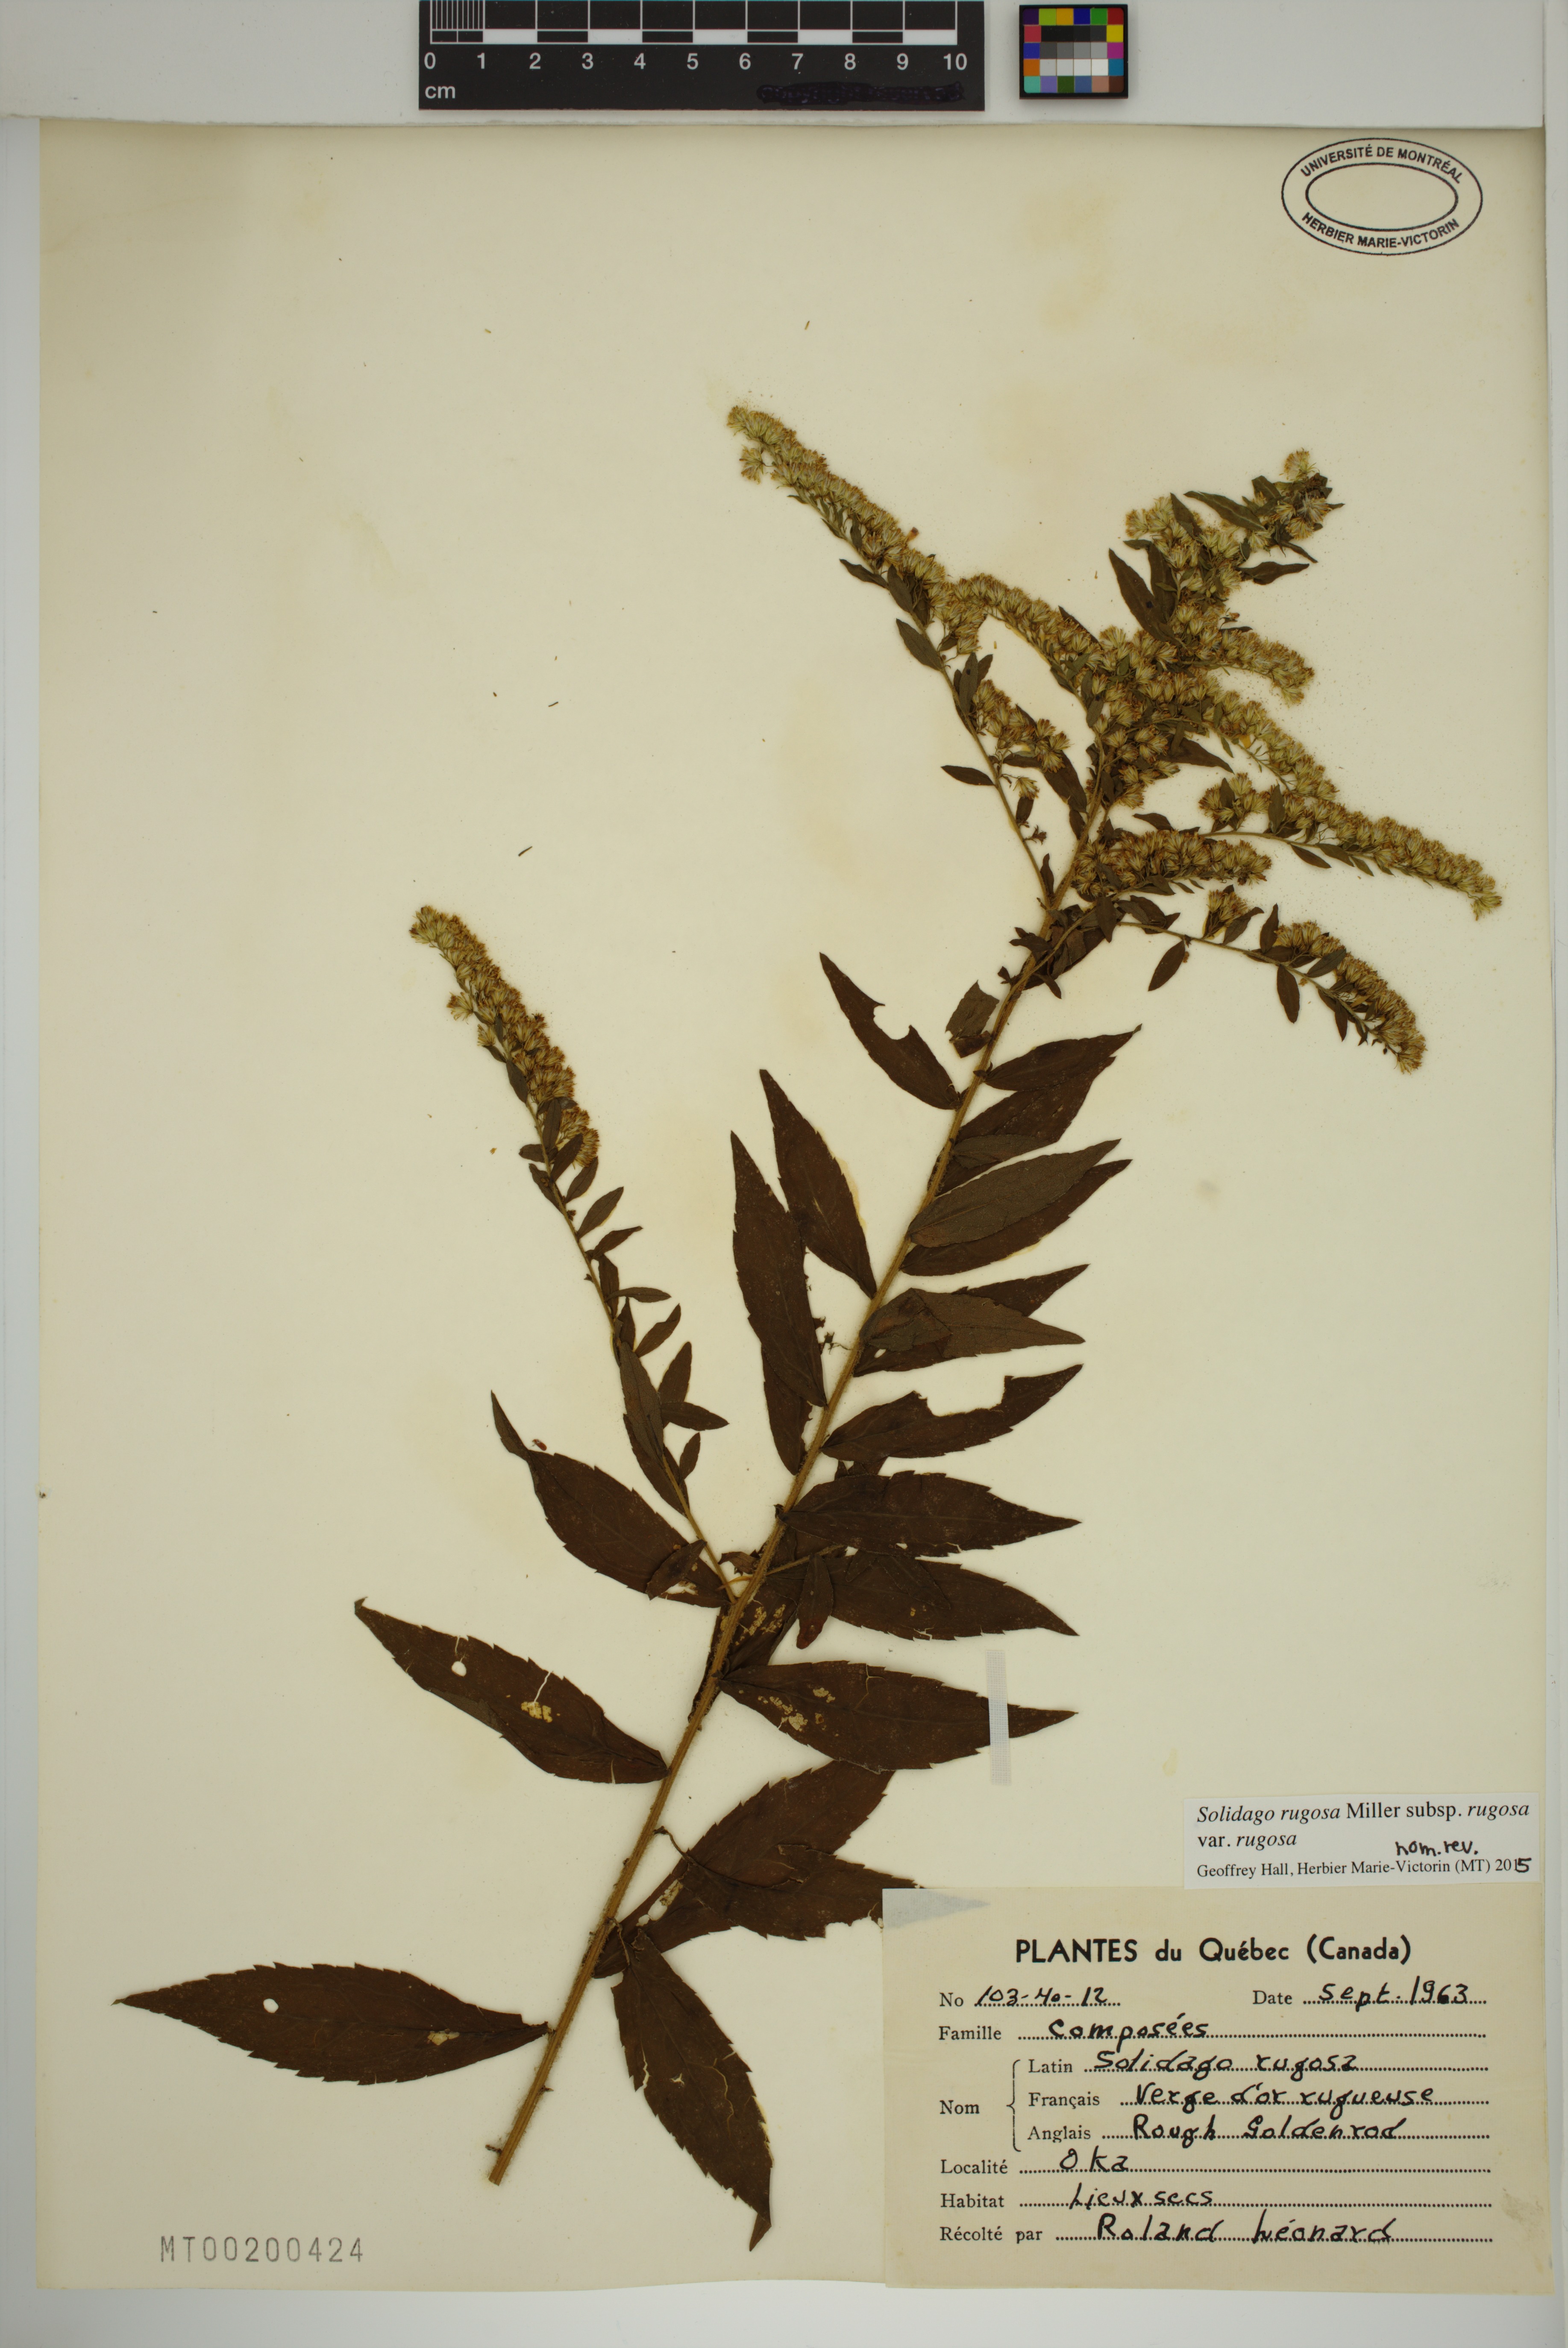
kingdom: Plantae
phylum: Tracheophyta
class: Magnoliopsida
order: Asterales
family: Asteraceae
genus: Solidago
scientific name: Solidago rugosa
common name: Rough-stemmed goldenrod
